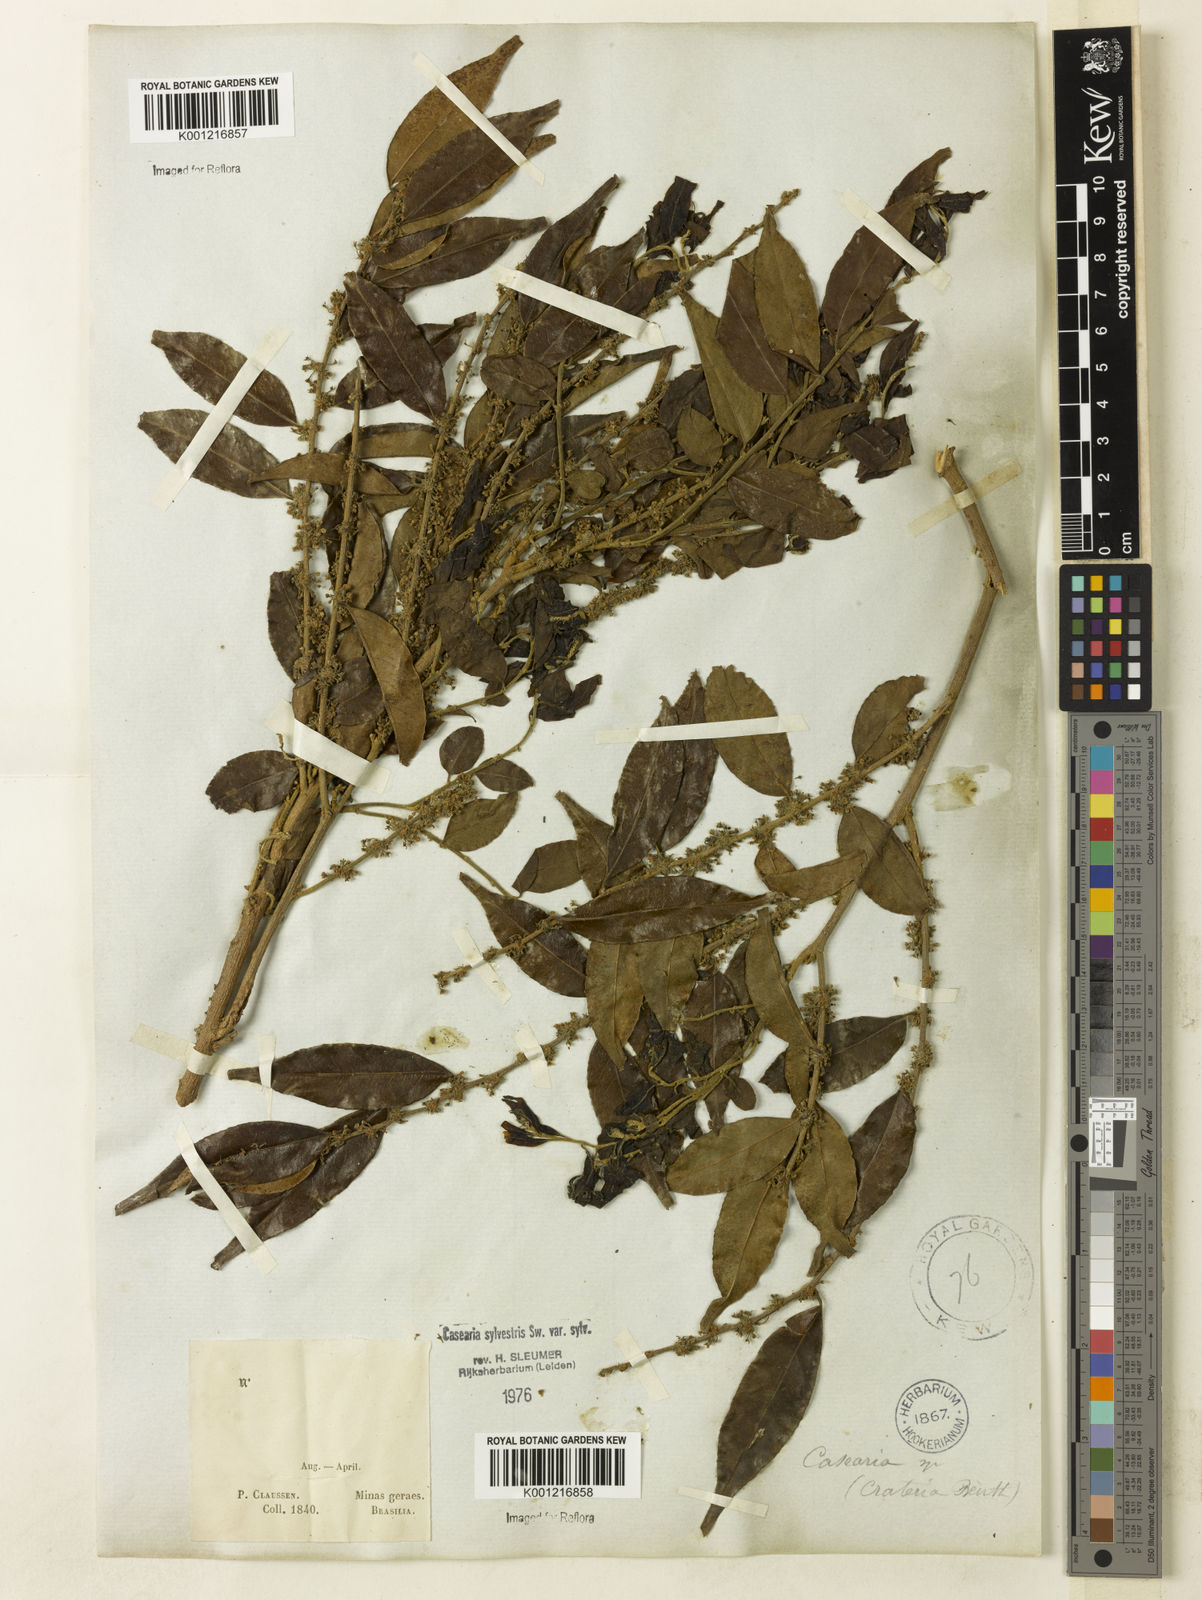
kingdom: Plantae
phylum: Tracheophyta
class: Magnoliopsida
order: Malpighiales
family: Salicaceae
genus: Casearia
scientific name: Casearia sylvestris
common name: Wild sage
